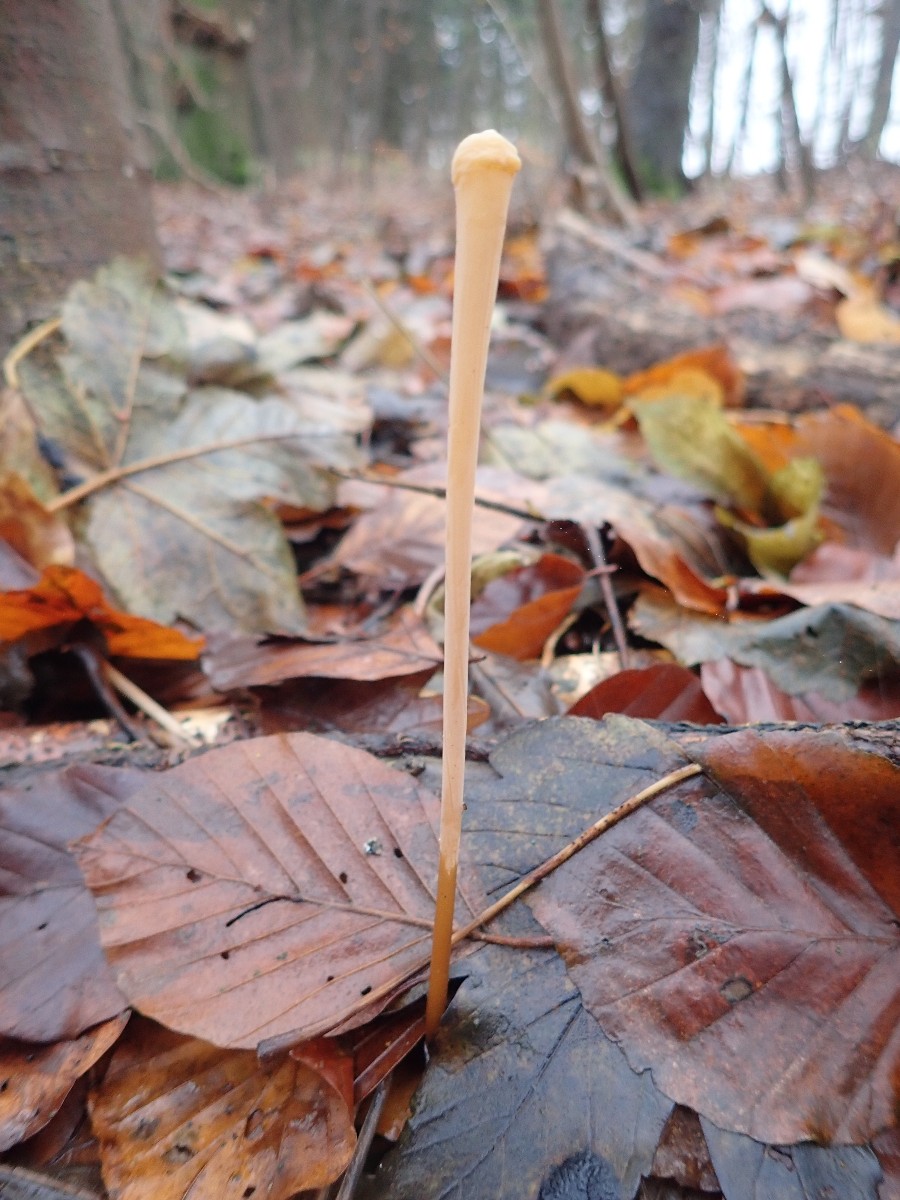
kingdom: Fungi
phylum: Basidiomycota
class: Agaricomycetes
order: Agaricales
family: Typhulaceae
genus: Typhula
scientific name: Typhula fistulosa
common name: pibet rørkølle
